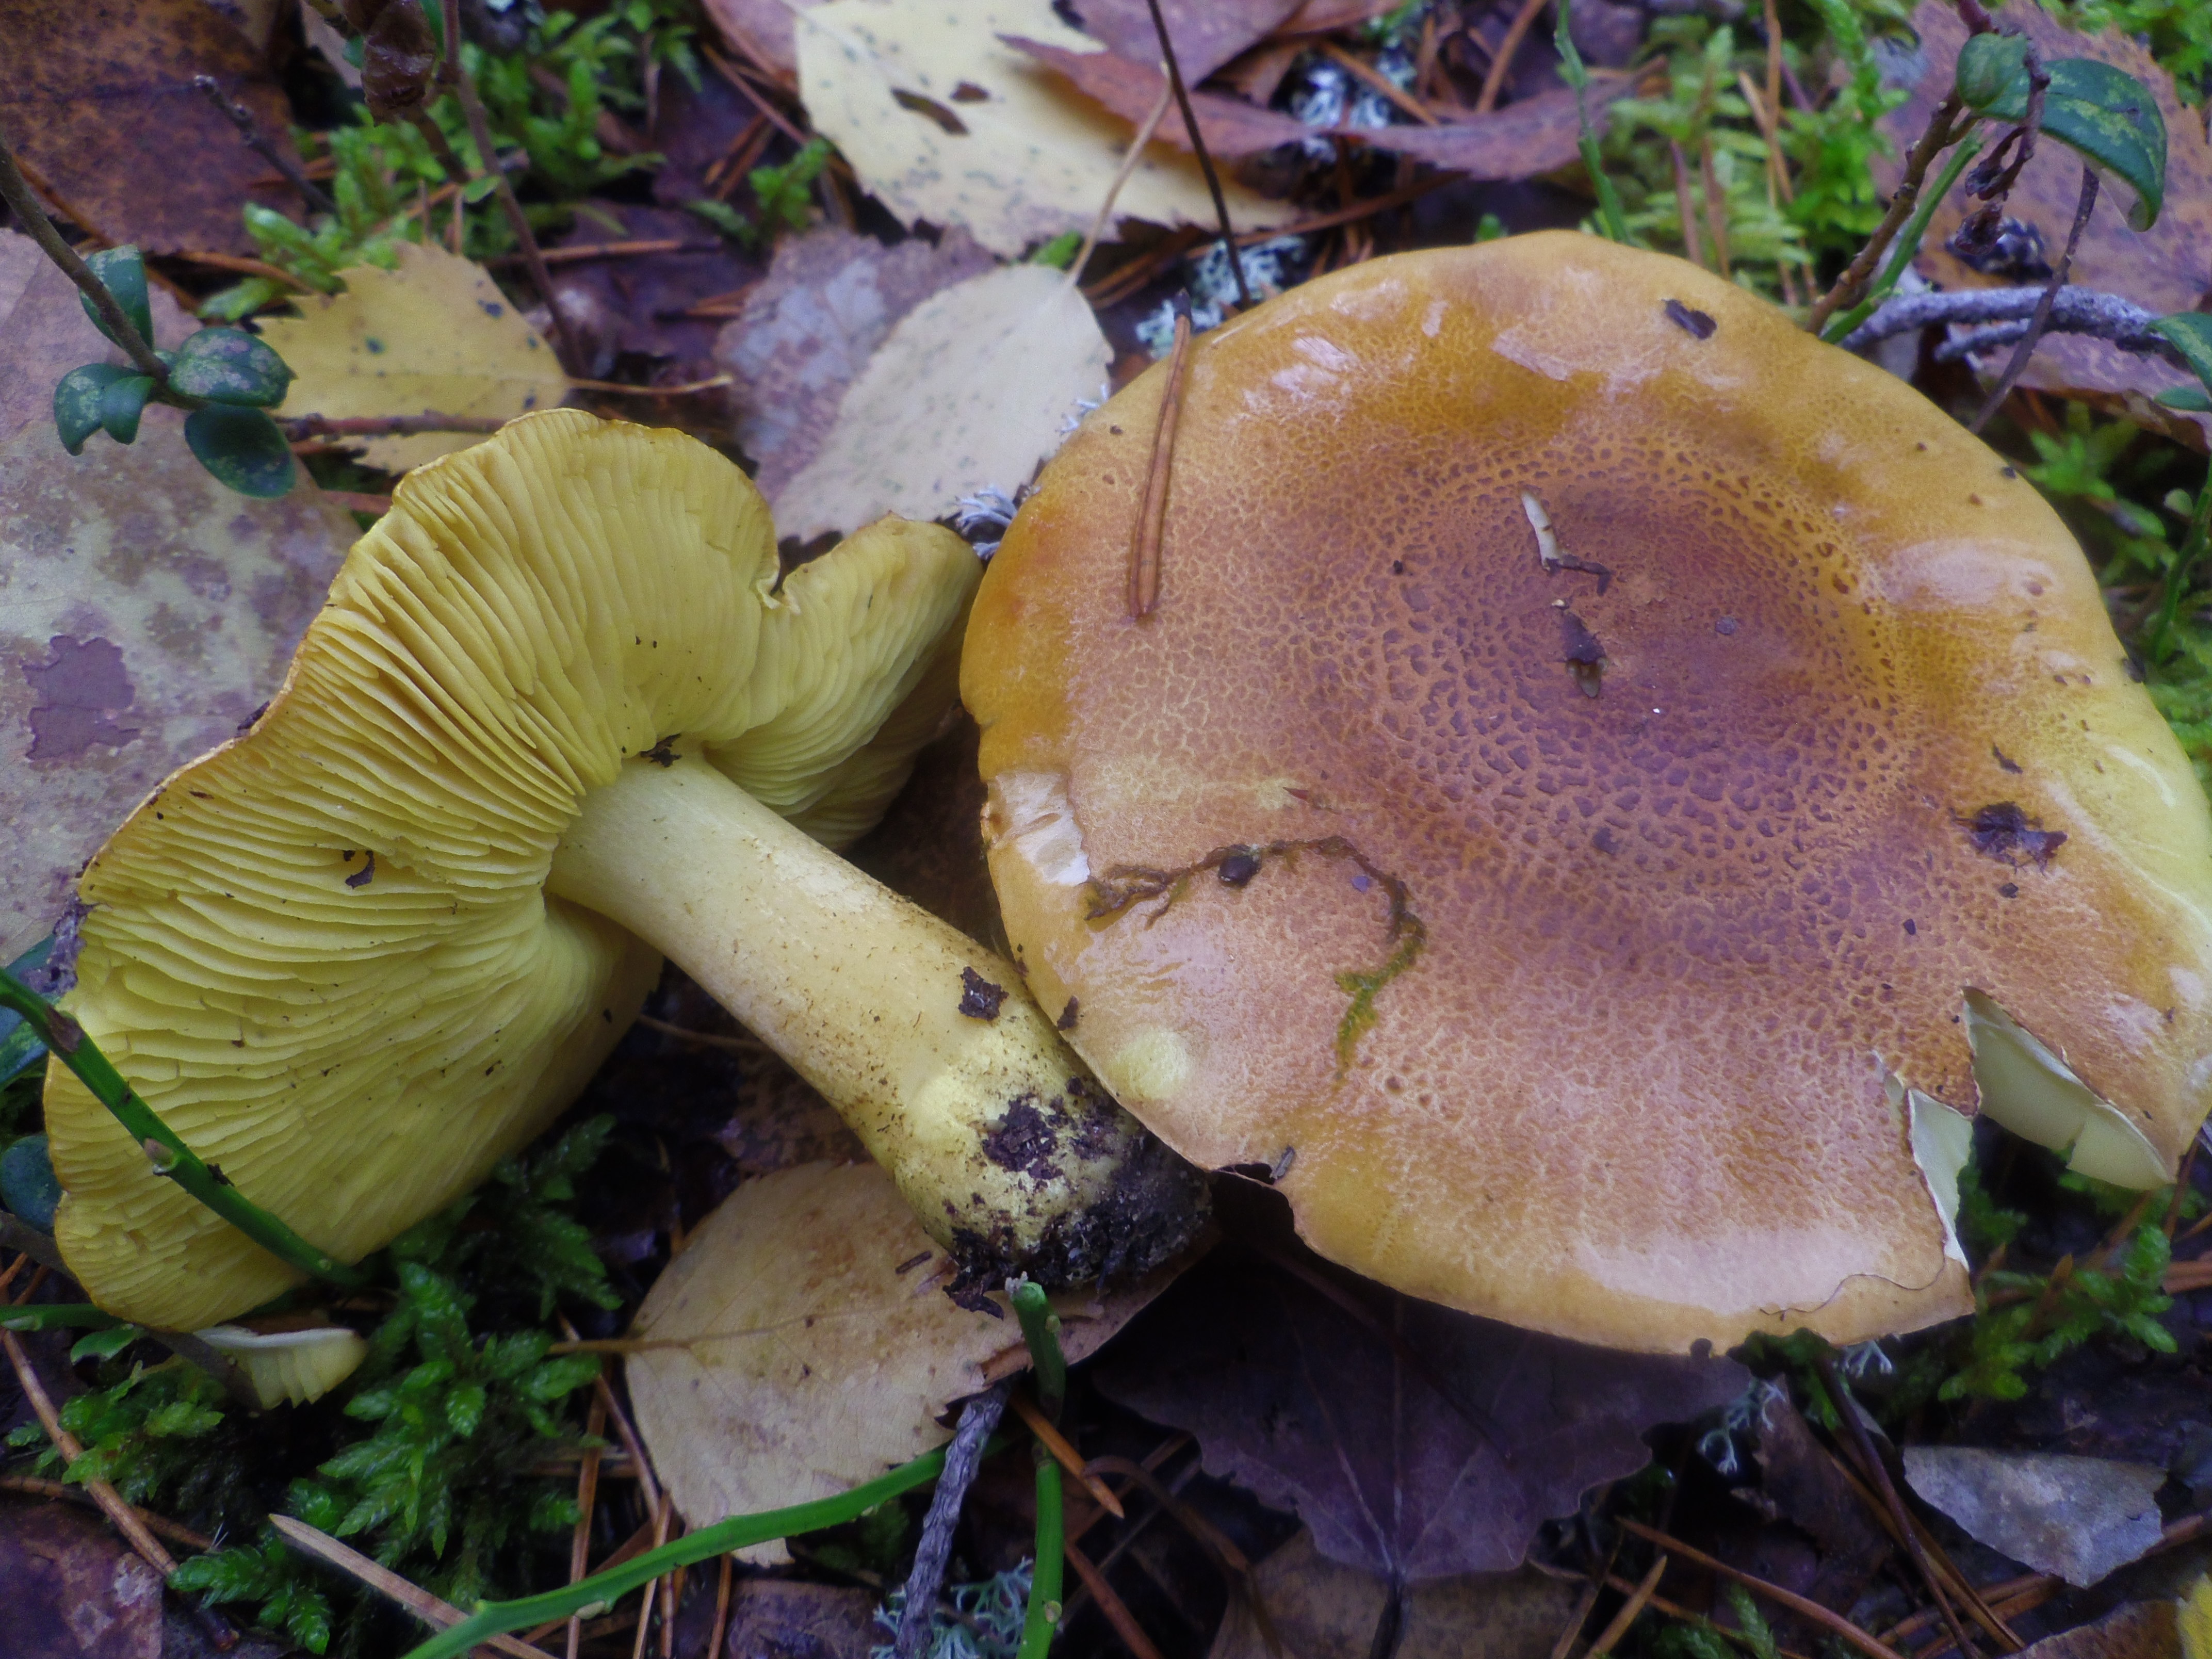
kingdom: Fungi
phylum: Basidiomycota
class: Agaricomycetes
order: Agaricales
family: Tricholomataceae
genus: Tricholoma
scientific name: Tricholoma equestre
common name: Yellow knight
